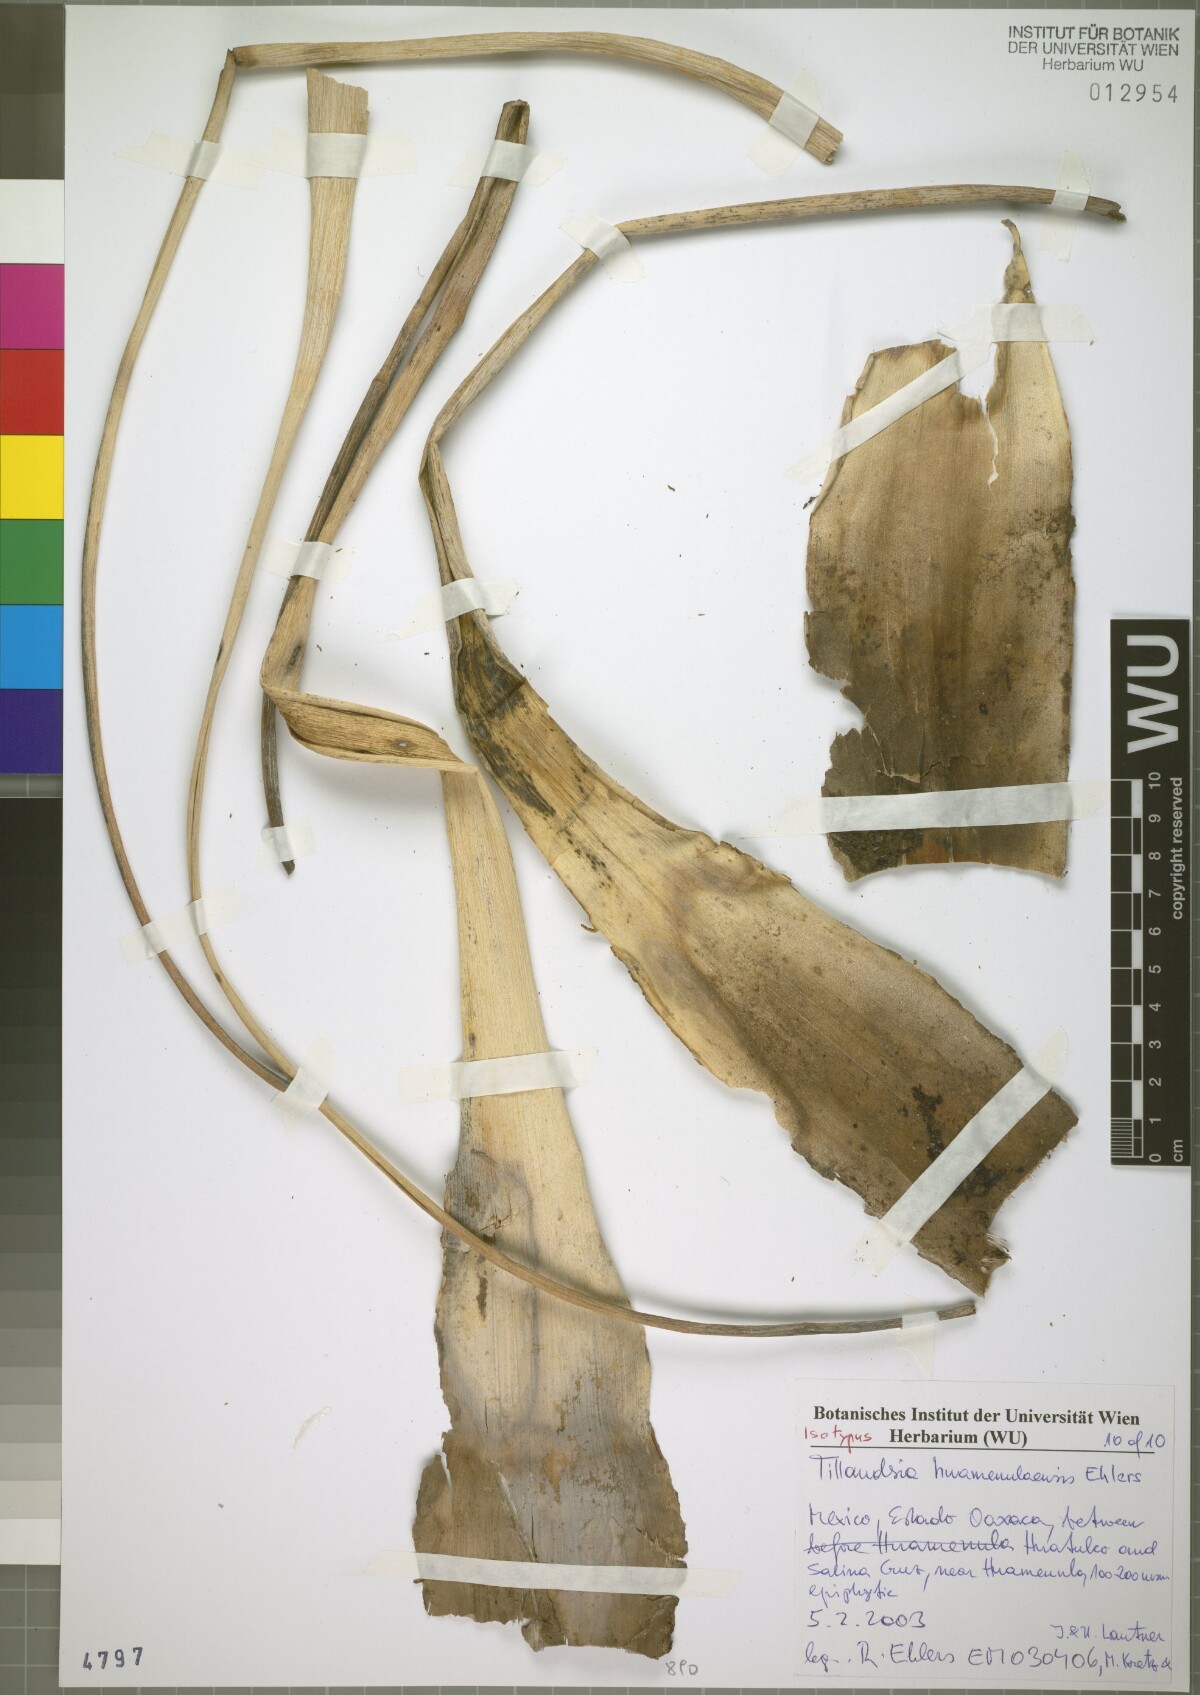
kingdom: Plantae
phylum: Tracheophyta
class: Liliopsida
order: Poales
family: Bromeliaceae
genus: Tillandsia
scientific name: Tillandsia huamenulaensis
